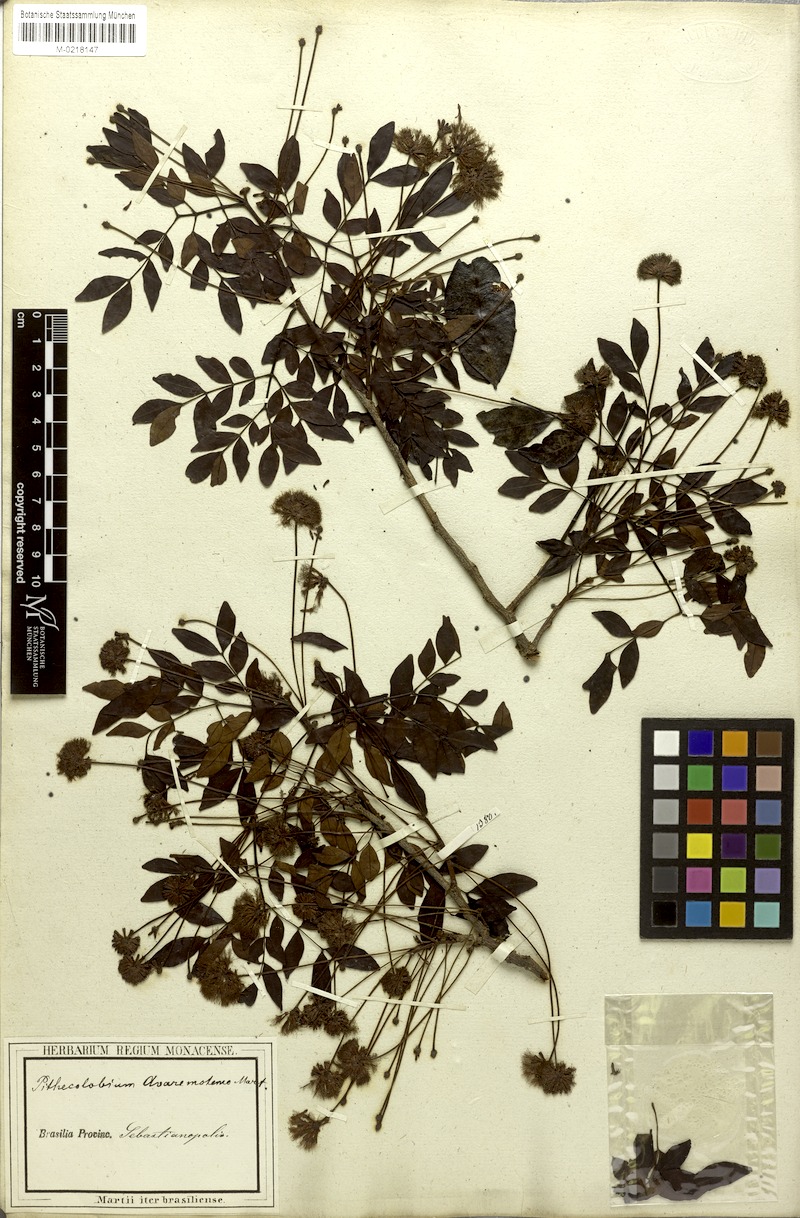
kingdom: Plantae
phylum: Tracheophyta
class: Magnoliopsida
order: Fabales
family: Fabaceae
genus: Abarema
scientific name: Abarema cochliocarpos
